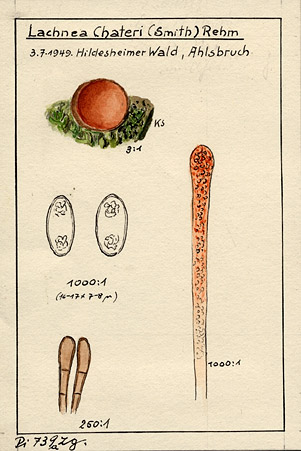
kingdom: Fungi
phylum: Ascomycota
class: Pezizomycetes
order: Pezizales
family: Pyronemataceae
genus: Melastiza
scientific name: Melastiza chateri
